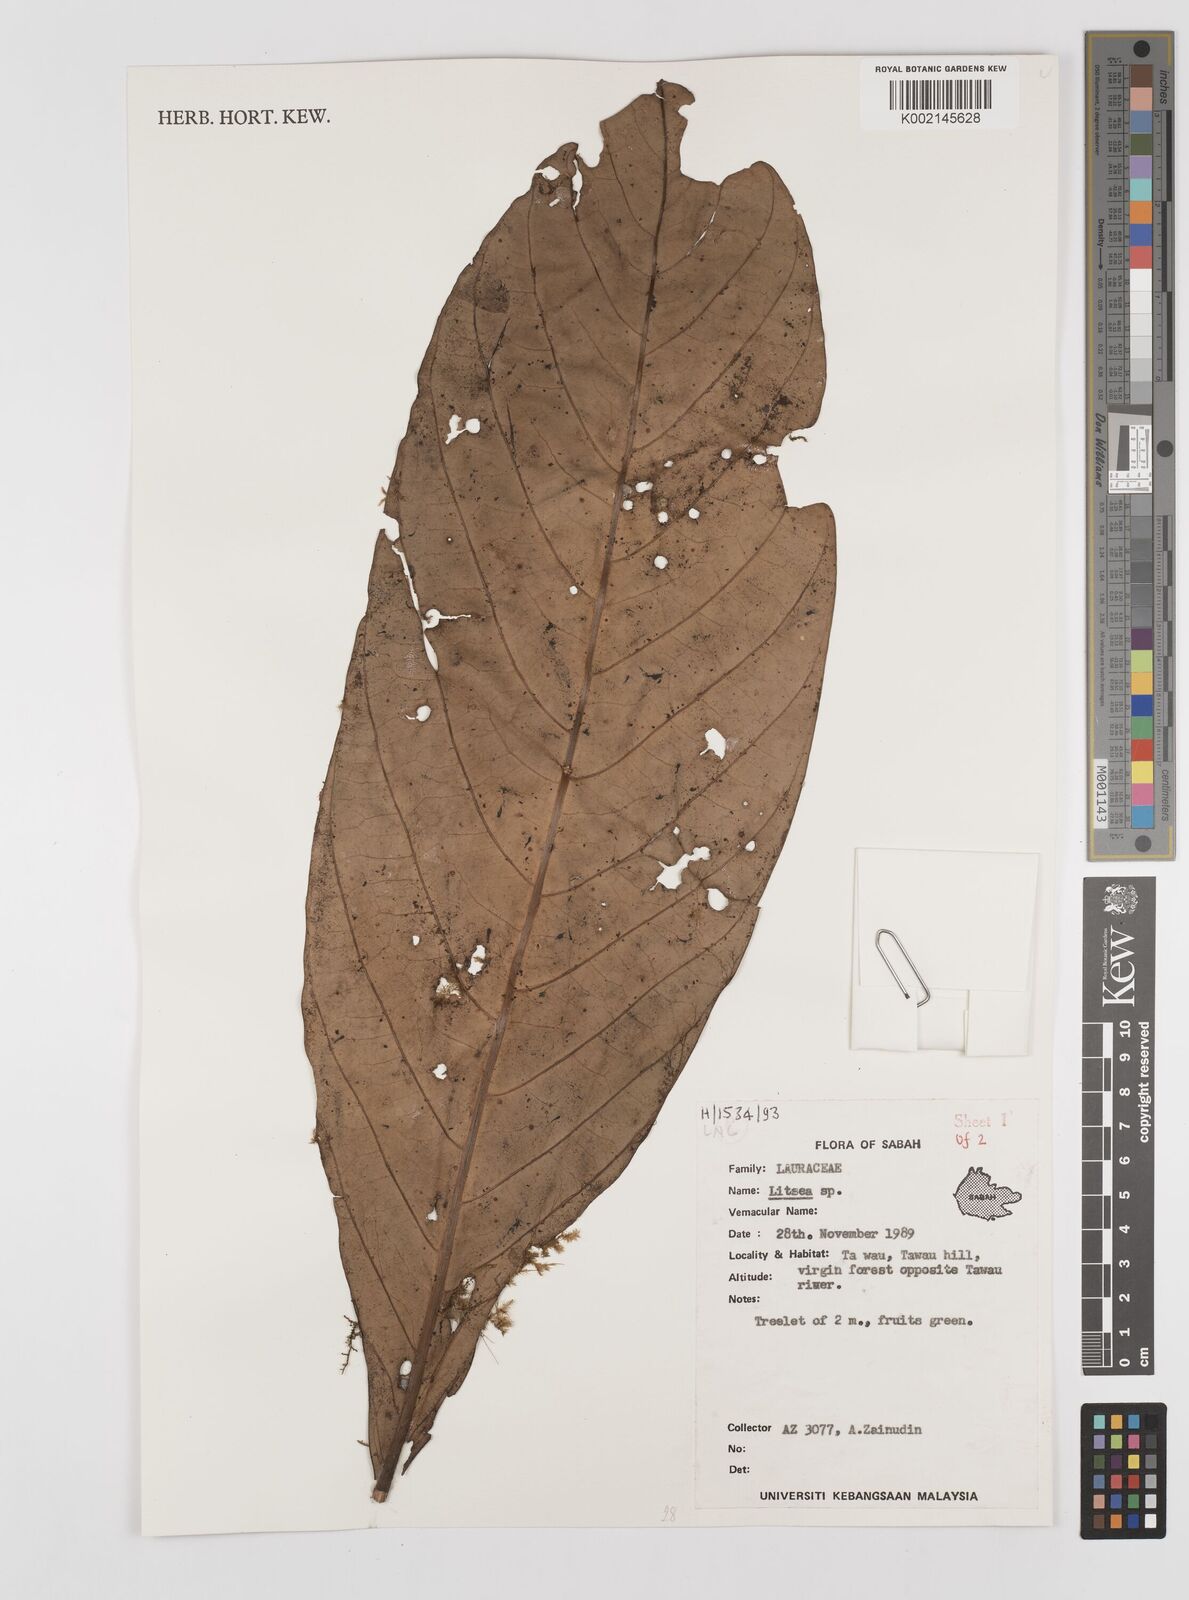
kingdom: Plantae
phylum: Tracheophyta
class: Magnoliopsida
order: Laurales
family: Lauraceae
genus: Litsea
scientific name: Litsea
